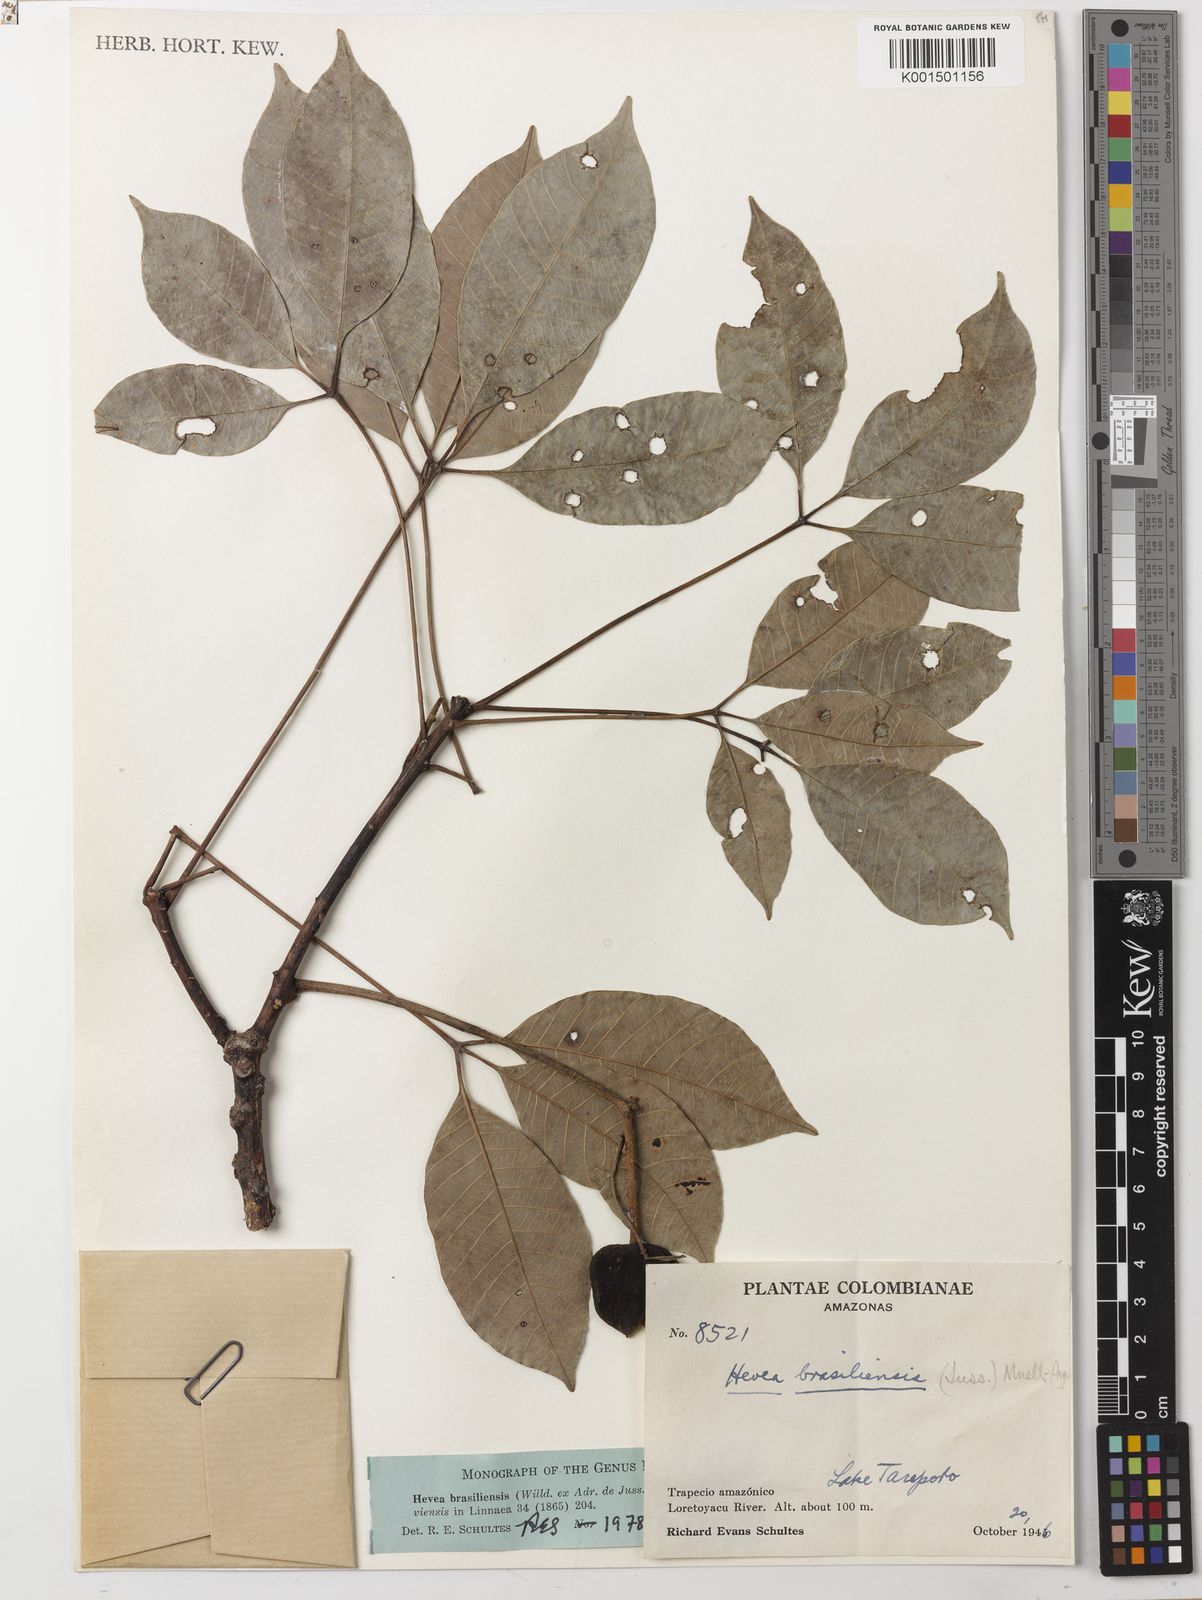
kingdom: Plantae
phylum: Tracheophyta
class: Magnoliopsida
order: Malpighiales
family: Euphorbiaceae
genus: Hevea
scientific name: Hevea brasiliensis
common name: Natural rubber
